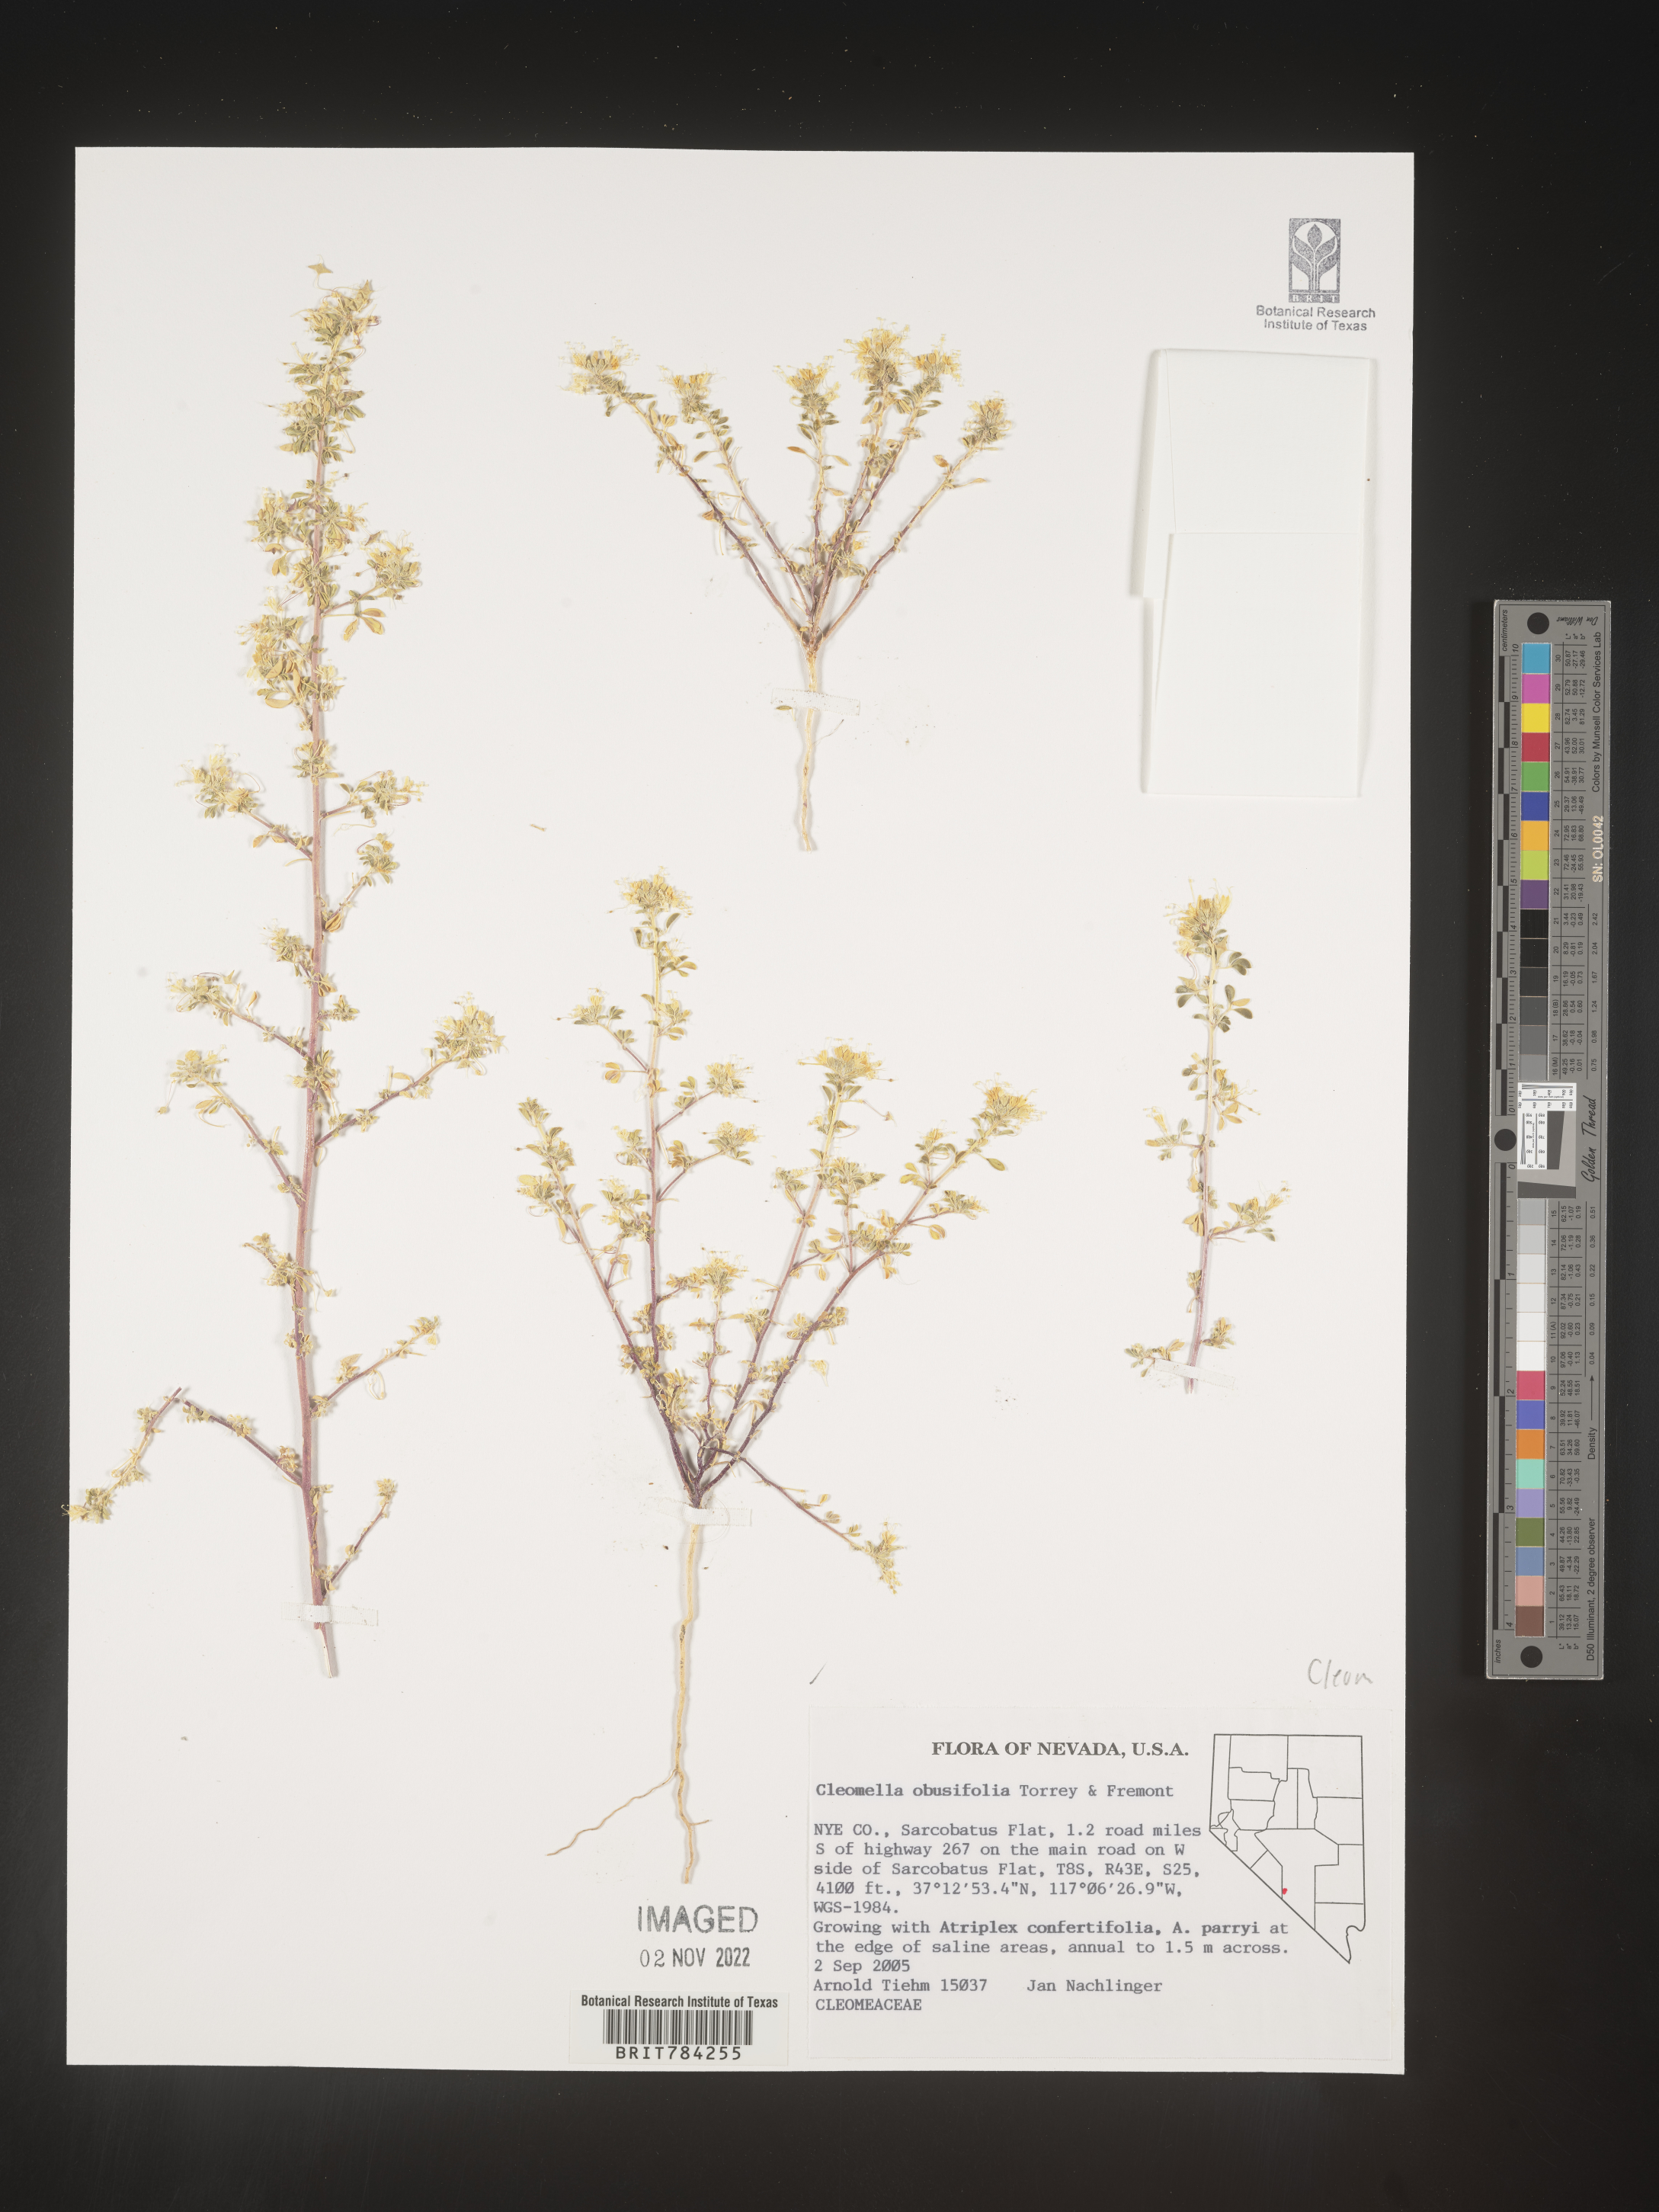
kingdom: Plantae
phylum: Tracheophyta
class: Magnoliopsida
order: Brassicales
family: Cleomaceae
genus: Cleomella
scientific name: Cleomella
